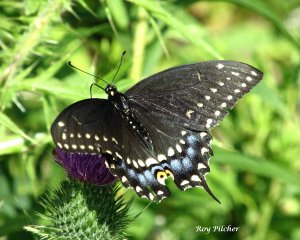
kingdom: Animalia
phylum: Arthropoda
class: Insecta
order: Lepidoptera
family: Papilionidae
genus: Papilio
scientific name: Papilio polyxenes
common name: Black Swallowtail
